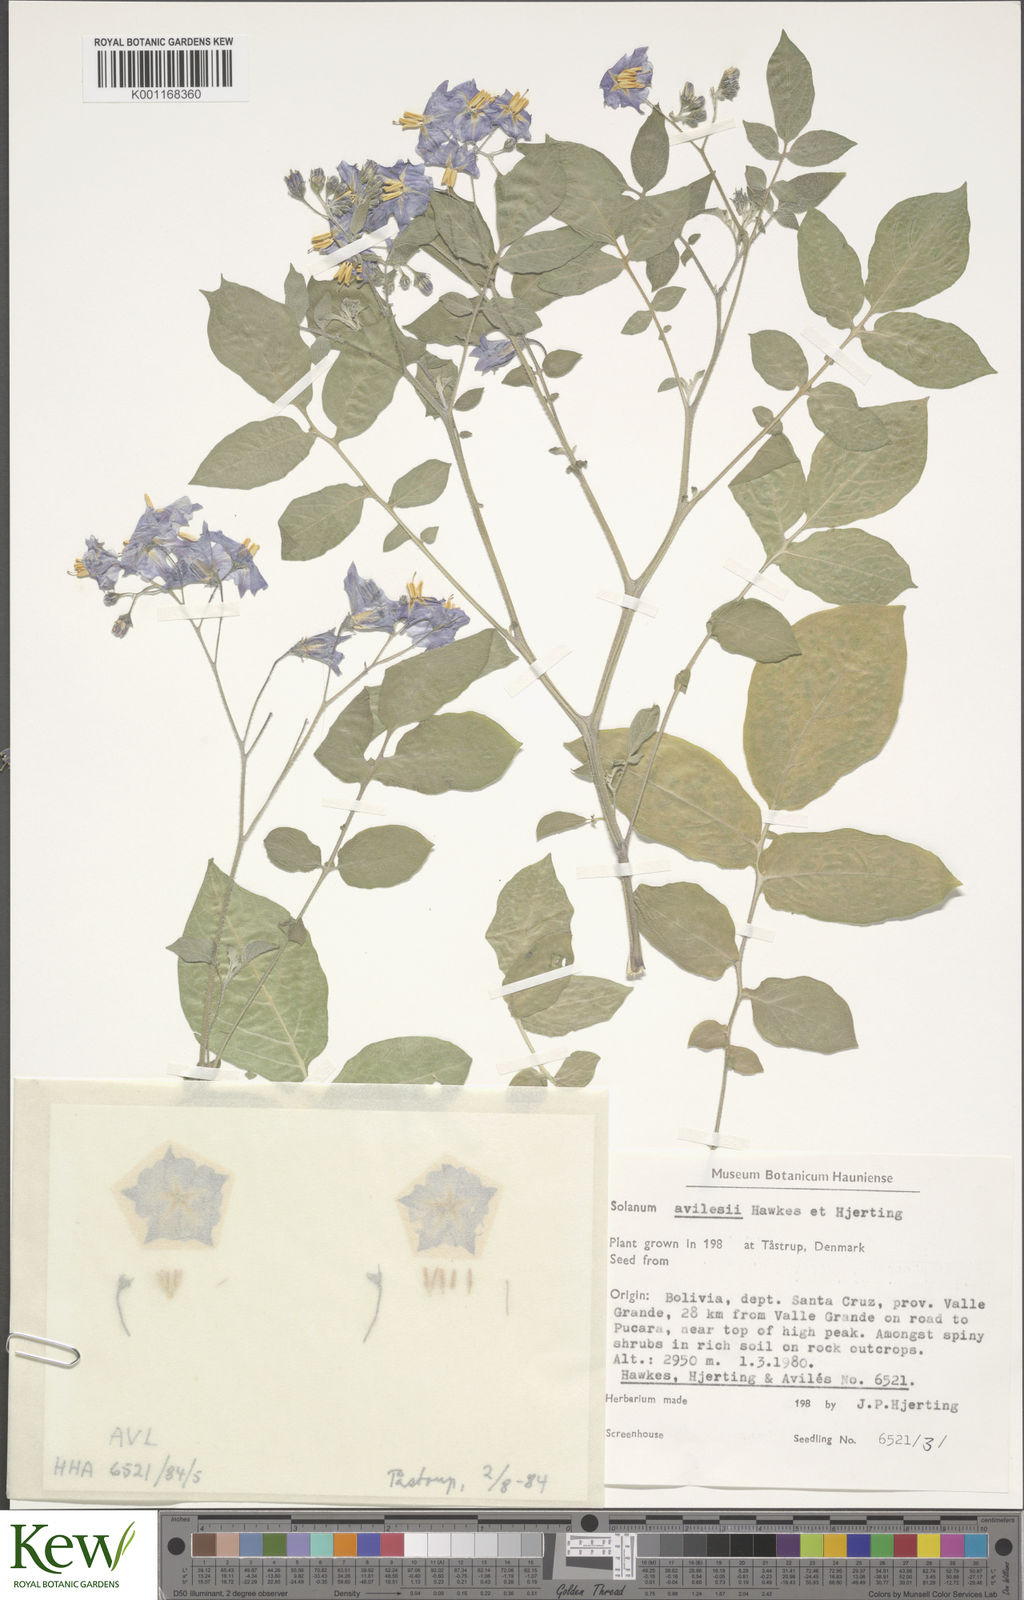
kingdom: Plantae
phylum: Tracheophyta
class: Magnoliopsida
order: Solanales
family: Solanaceae
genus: Solanum
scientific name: Solanum brevicaule
